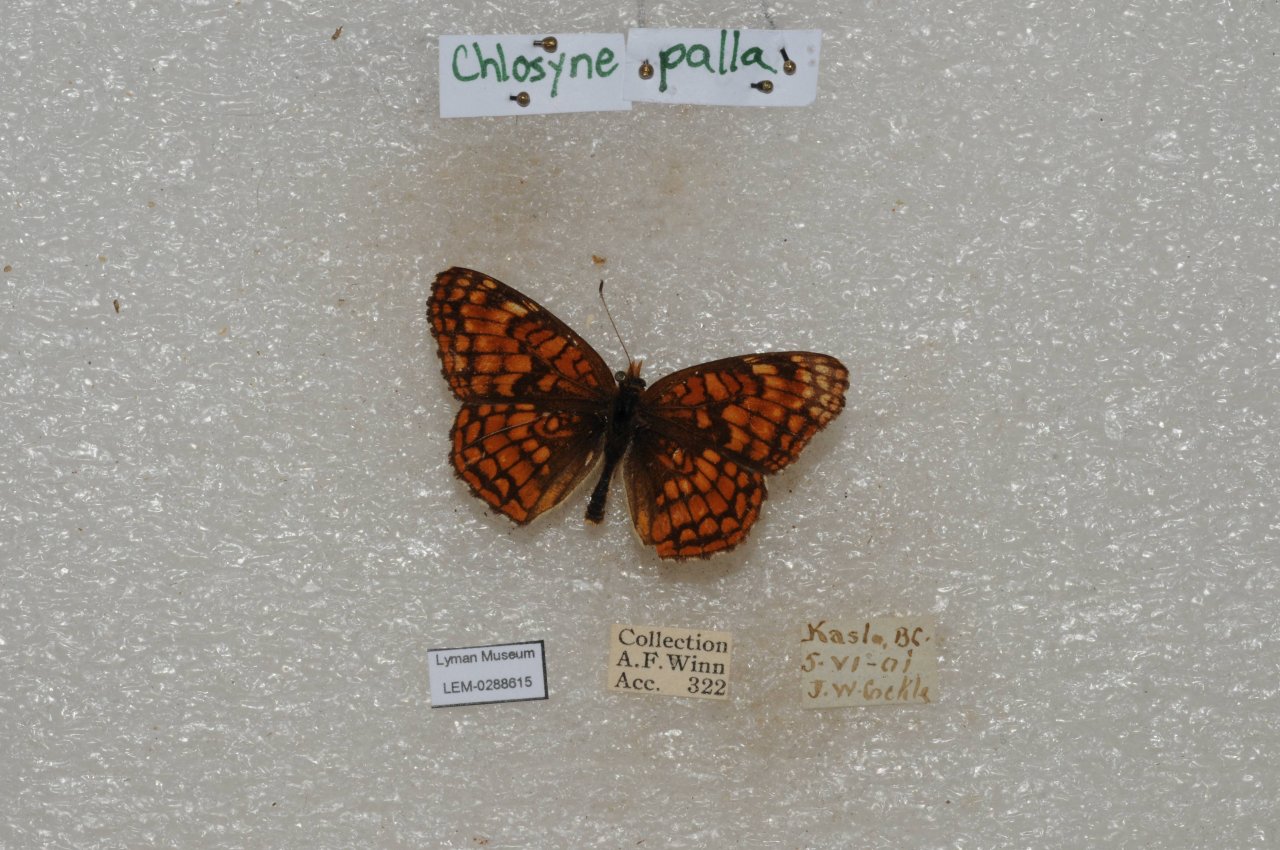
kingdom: Animalia
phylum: Arthropoda
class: Insecta
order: Lepidoptera
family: Nymphalidae
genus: Chlosyne
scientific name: Chlosyne palla
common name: Northern Checkerspot
